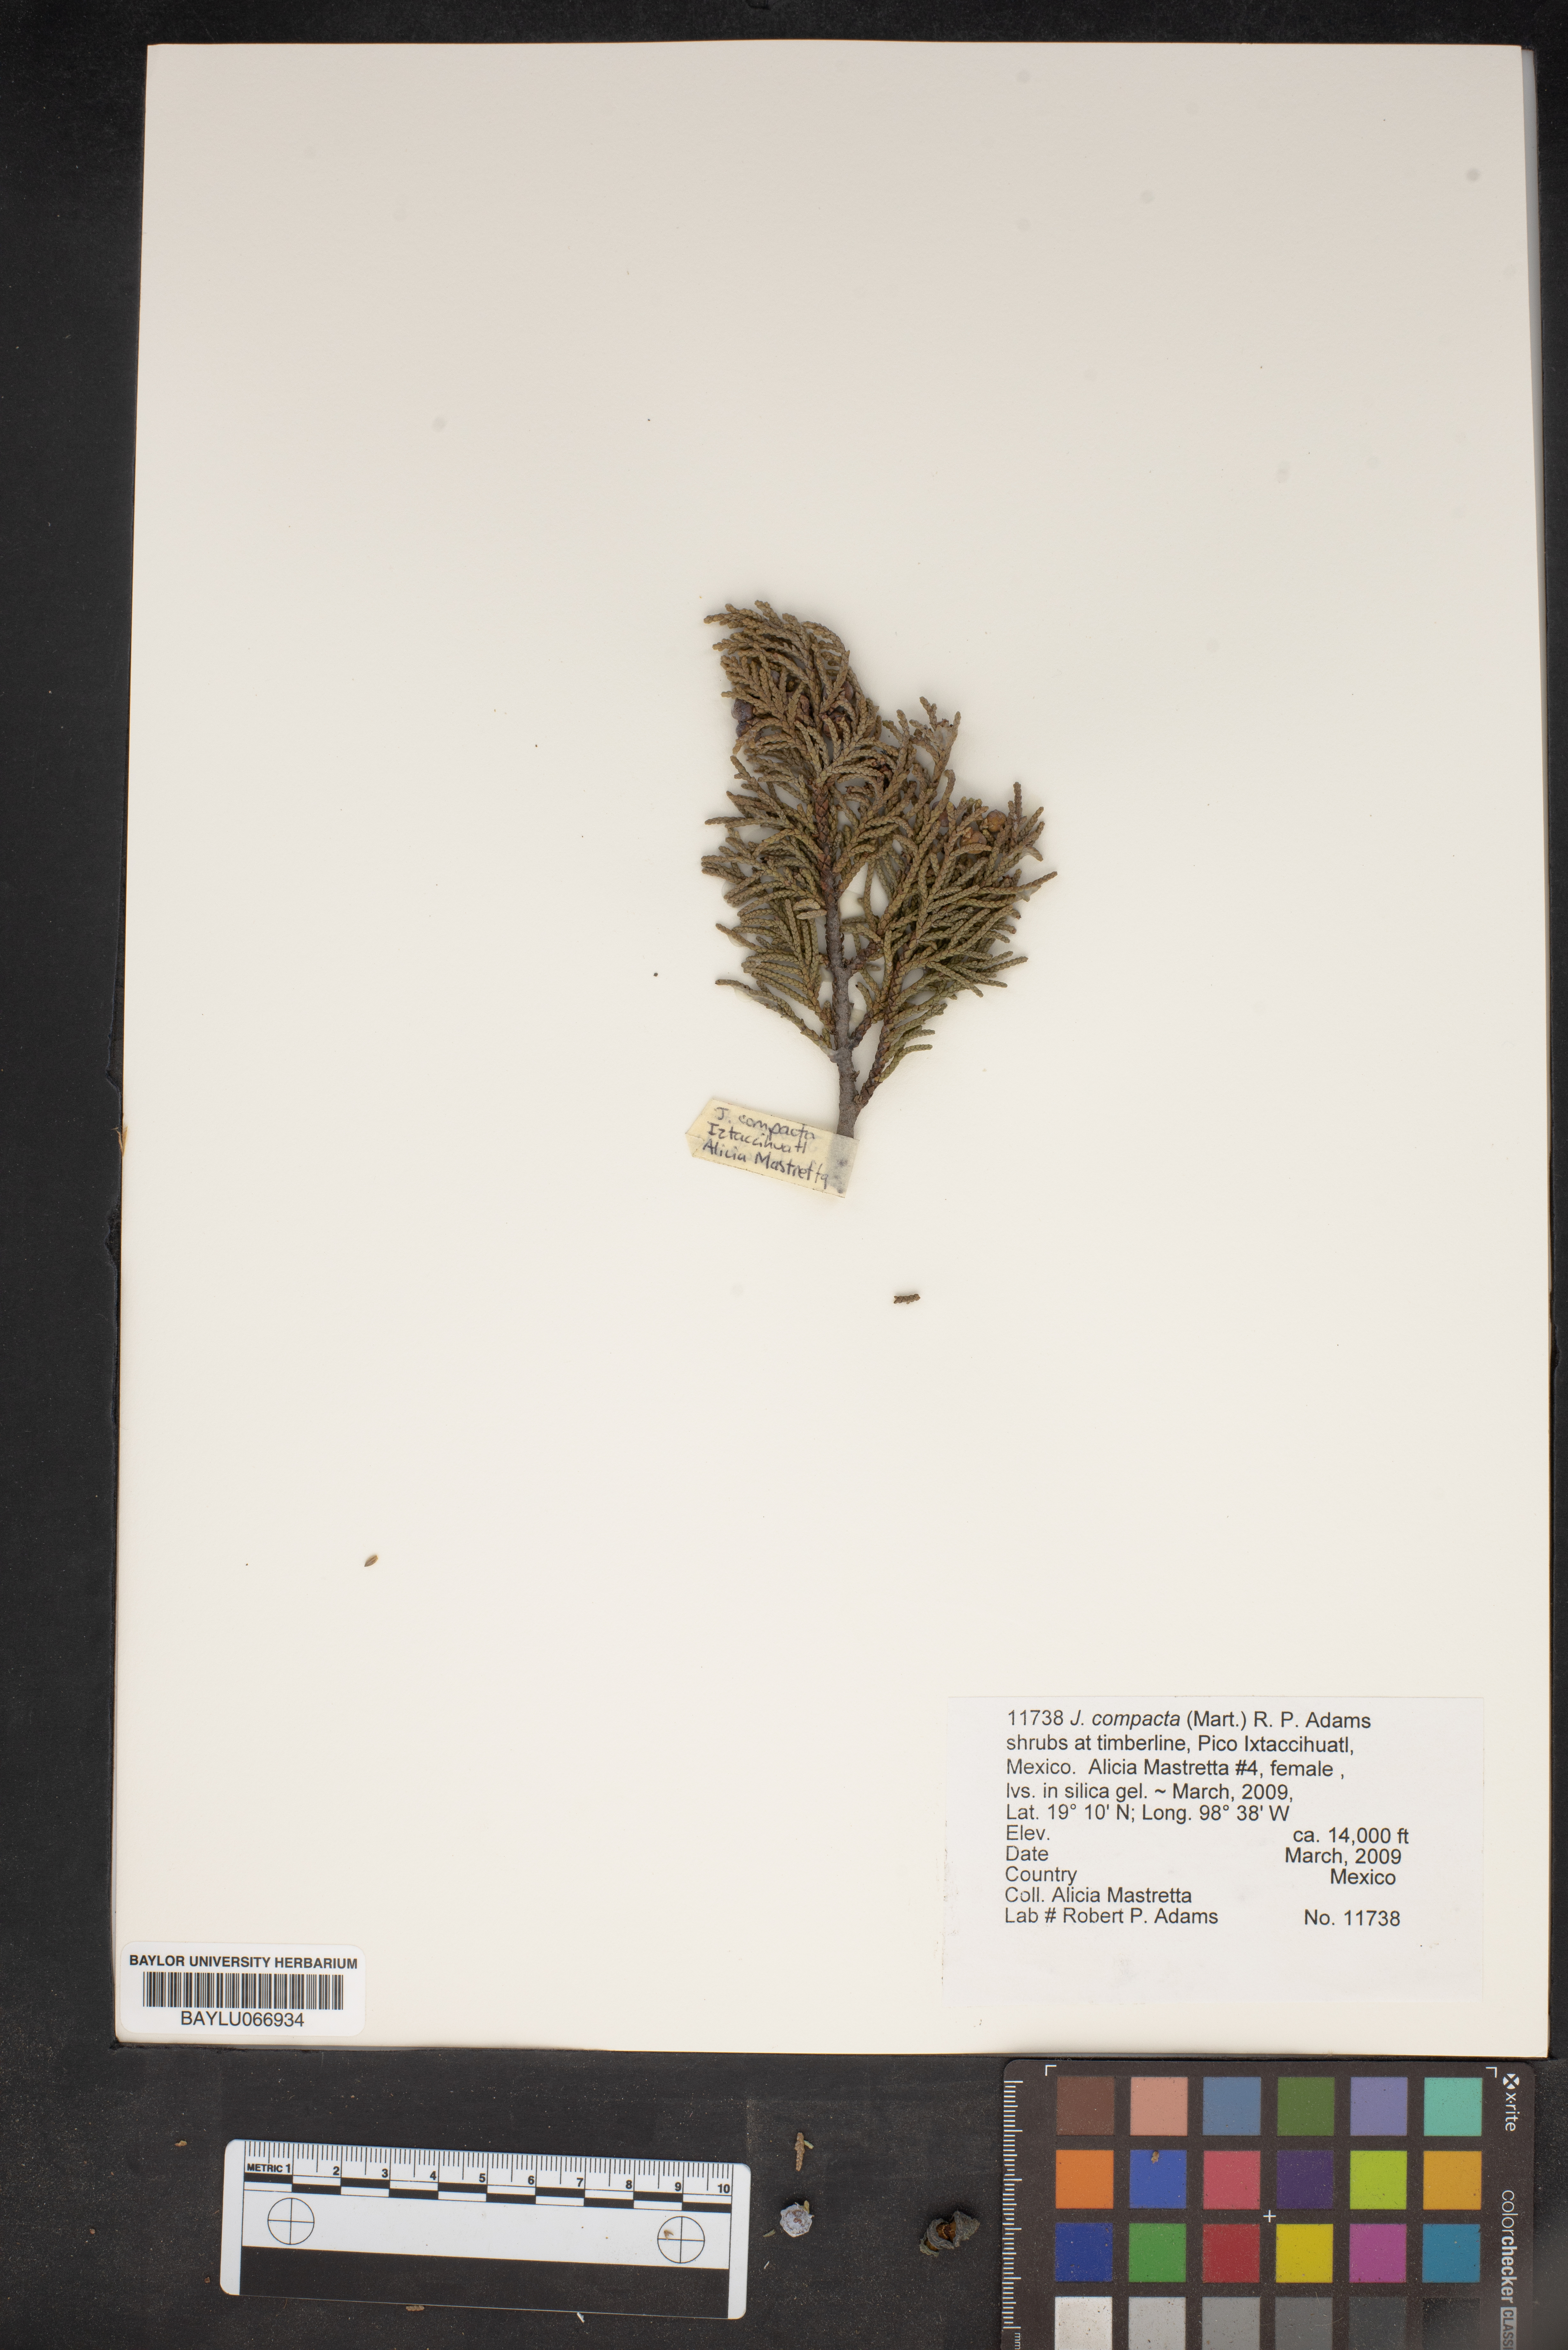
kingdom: Plantae
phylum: Tracheophyta
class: Pinopsida
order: Pinales
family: Cupressaceae
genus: Juniperus
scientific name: Juniperus monticola
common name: Mexican juniper
